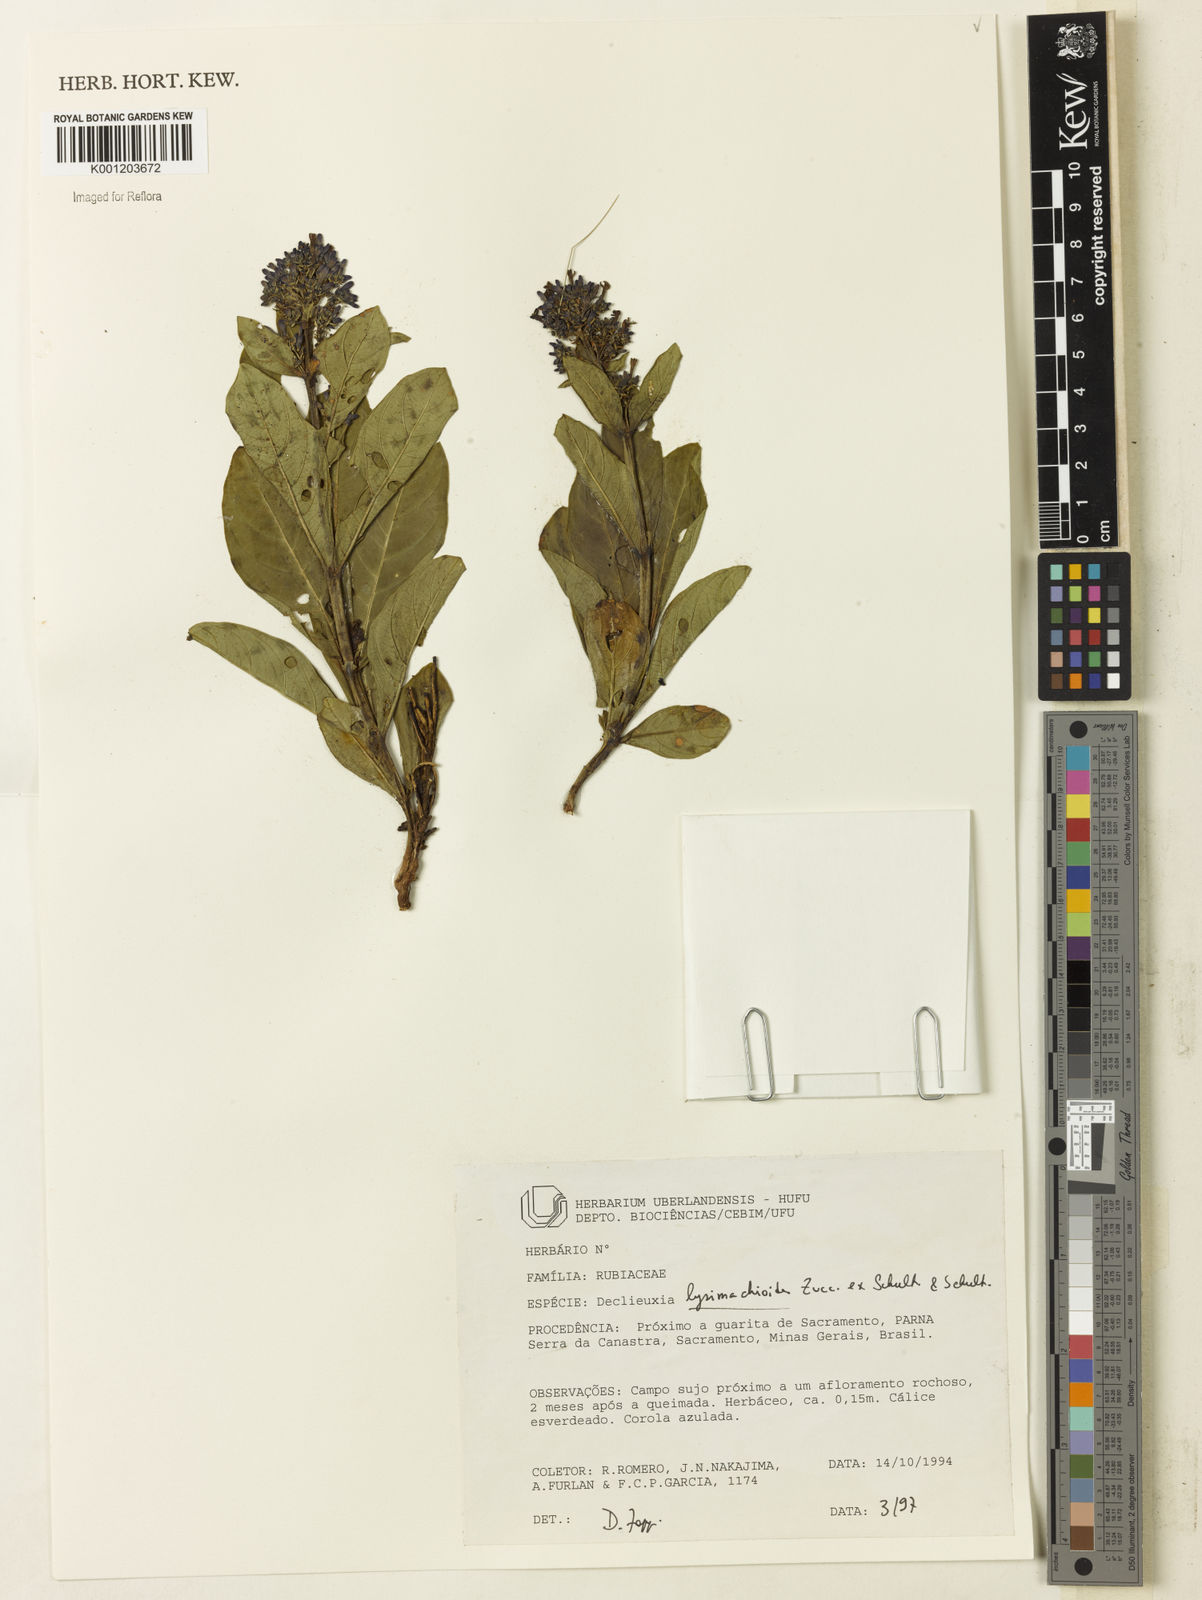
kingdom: Plantae
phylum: Tracheophyta
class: Magnoliopsida
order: Gentianales
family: Rubiaceae
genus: Declieuxia
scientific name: Declieuxia
